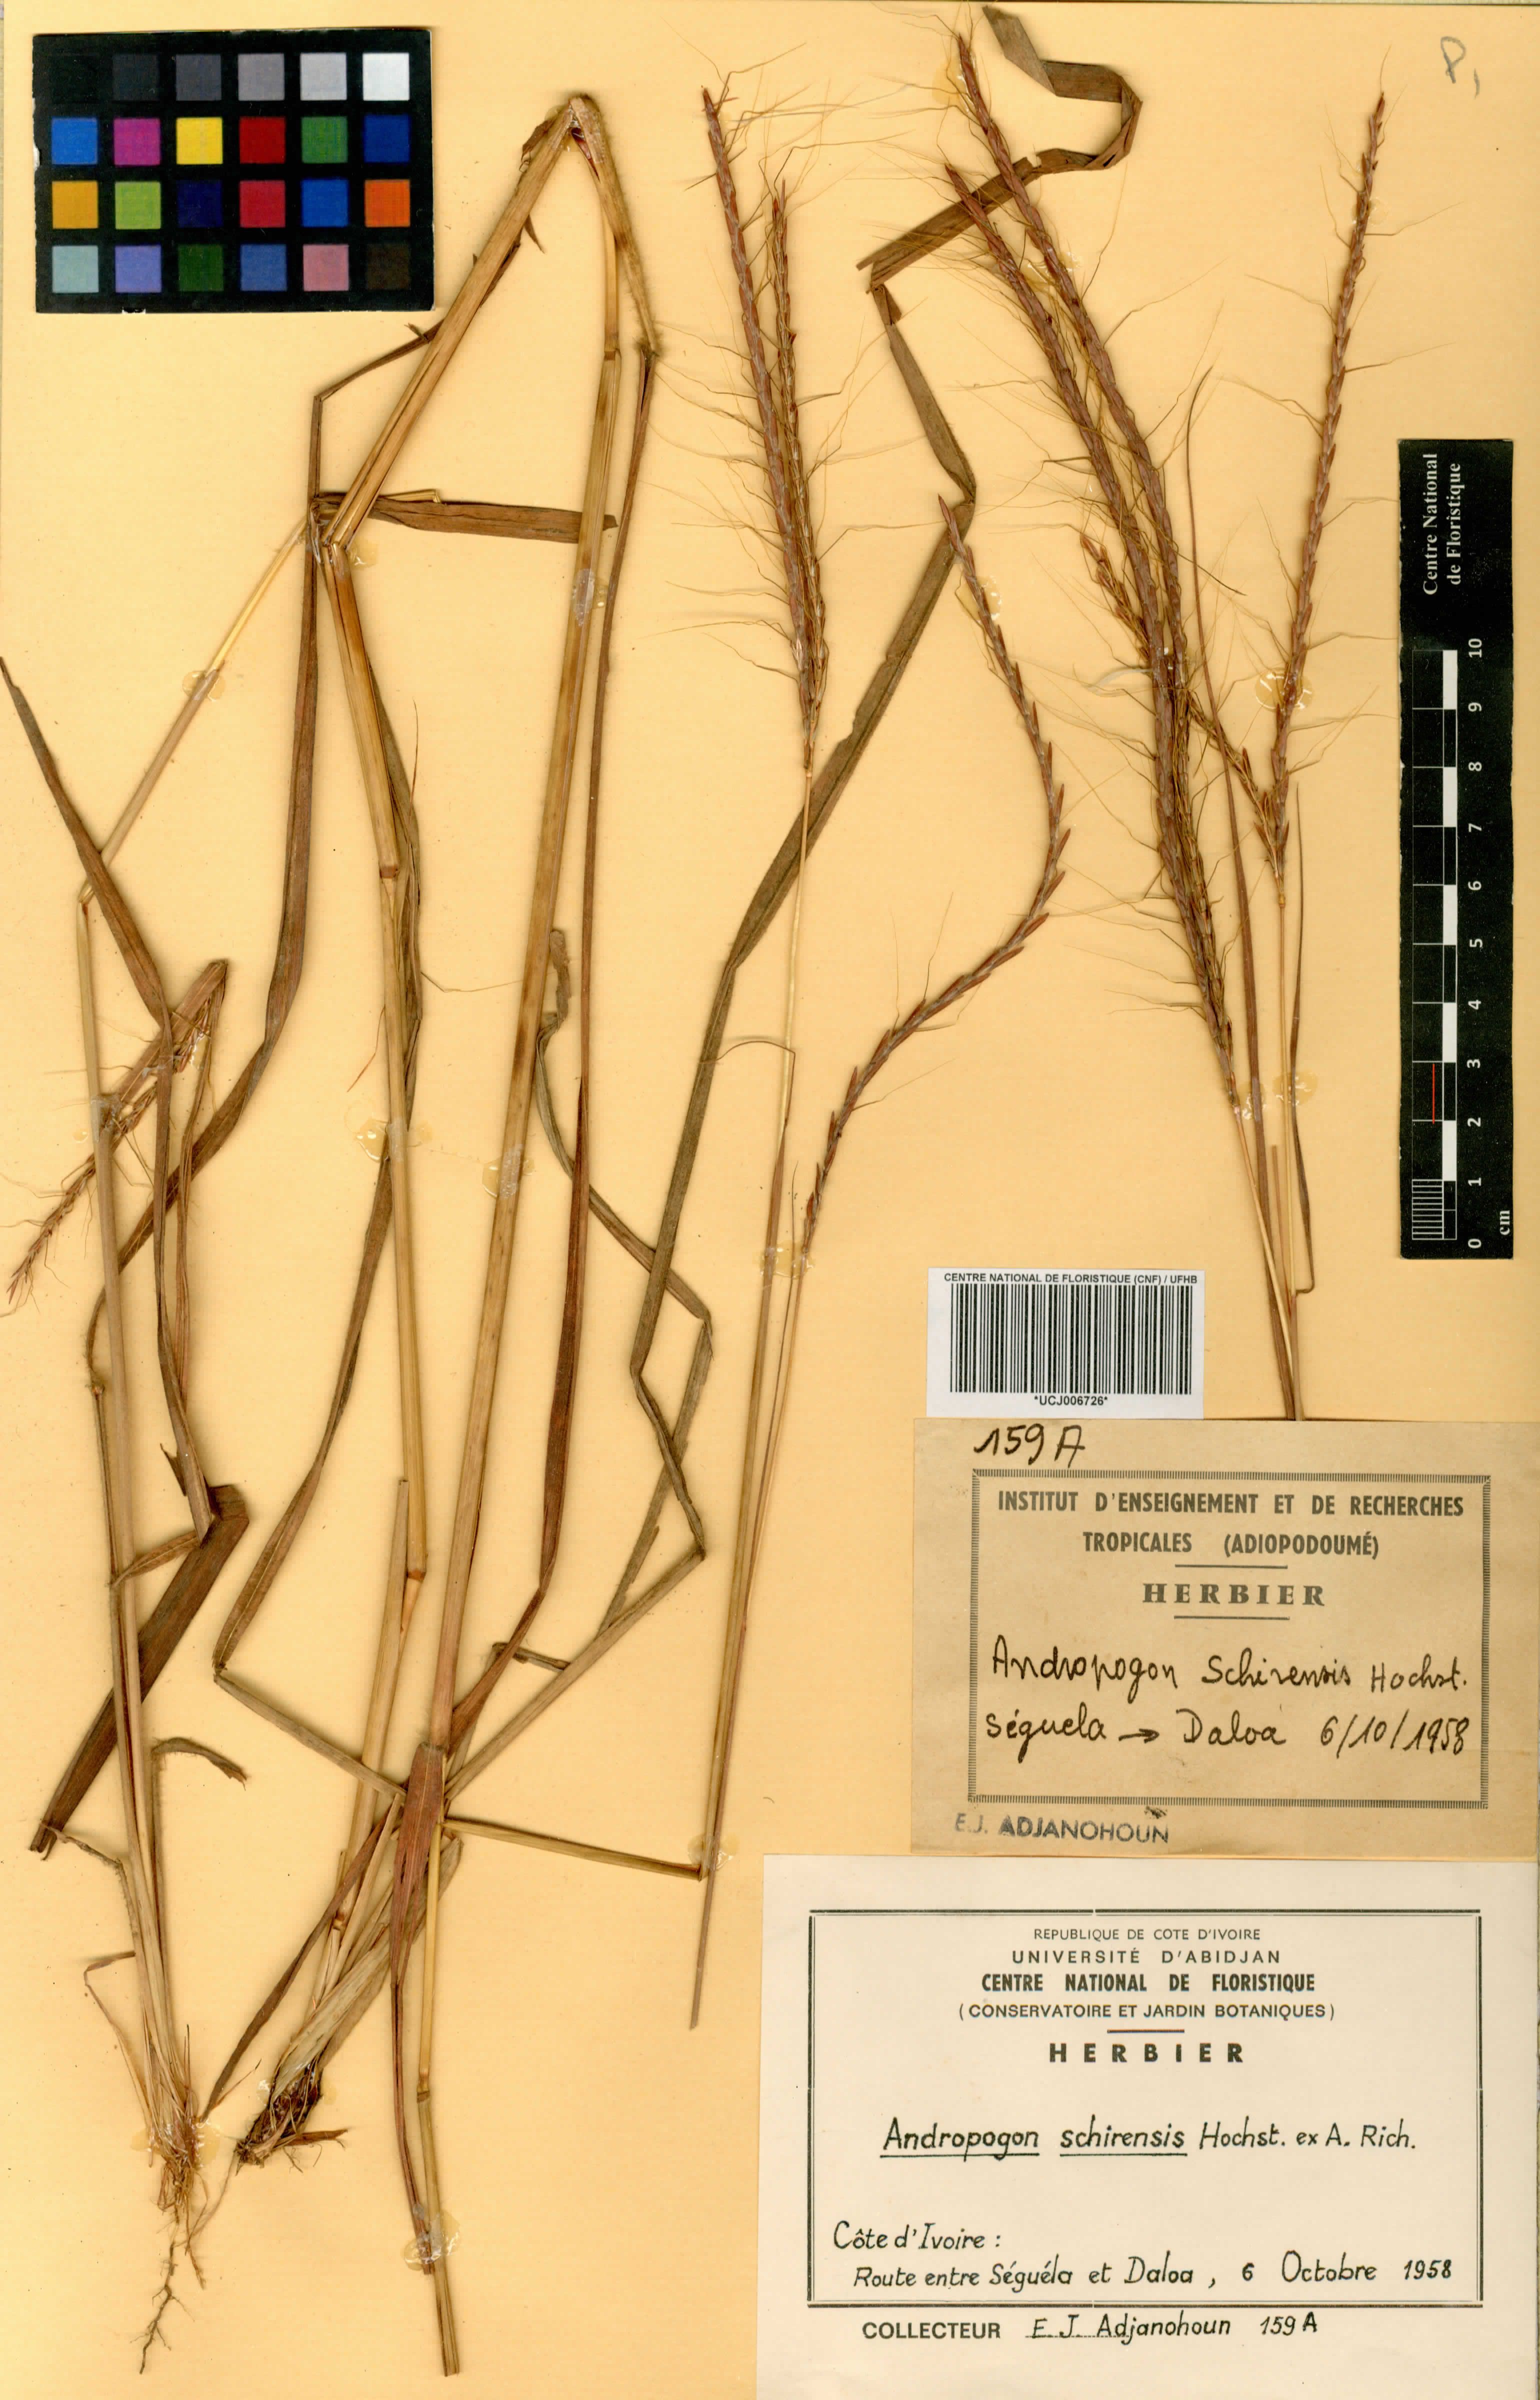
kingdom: Plantae
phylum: Tracheophyta
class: Liliopsida
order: Poales
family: Poaceae
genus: Andropogon
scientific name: Andropogon schirensis
